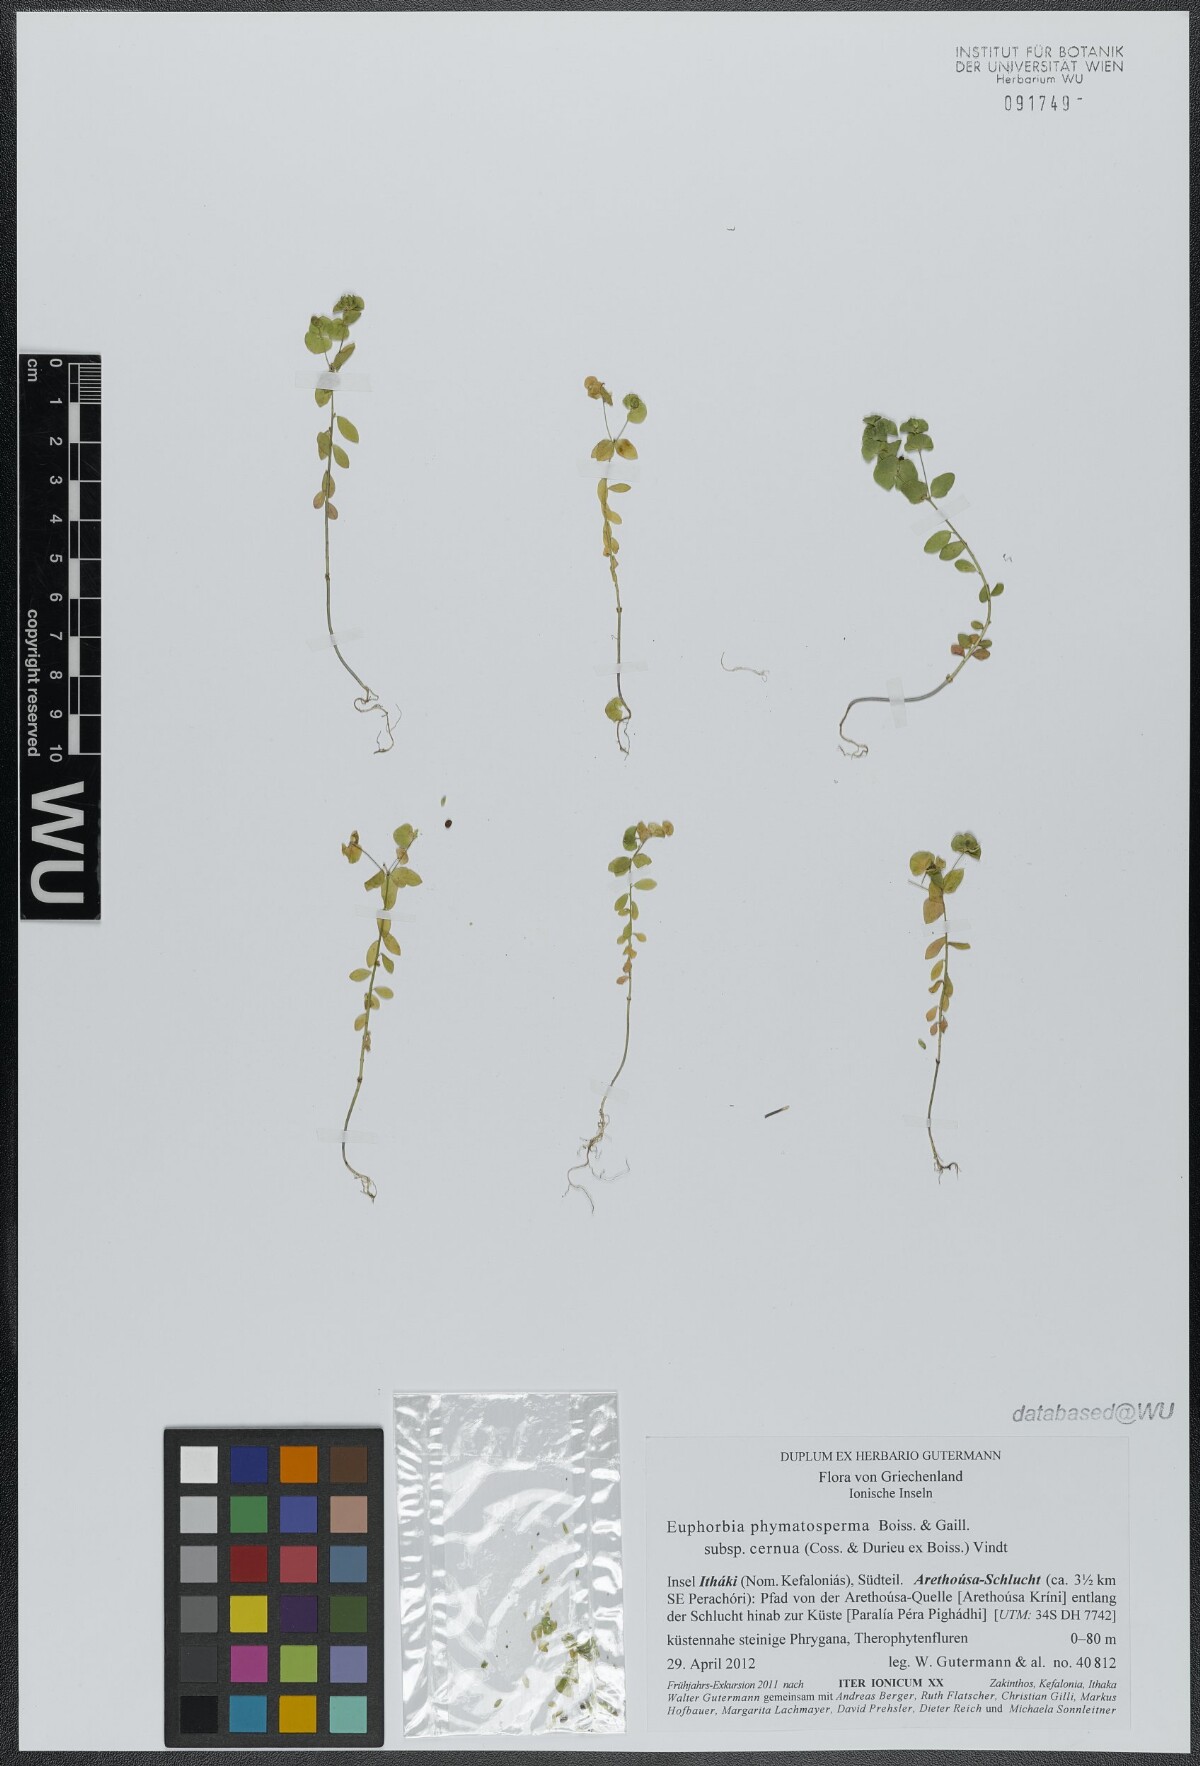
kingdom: Plantae
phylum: Tracheophyta
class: Magnoliopsida
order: Malpighiales
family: Euphorbiaceae
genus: Euphorbia
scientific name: Euphorbia phymatosperma
